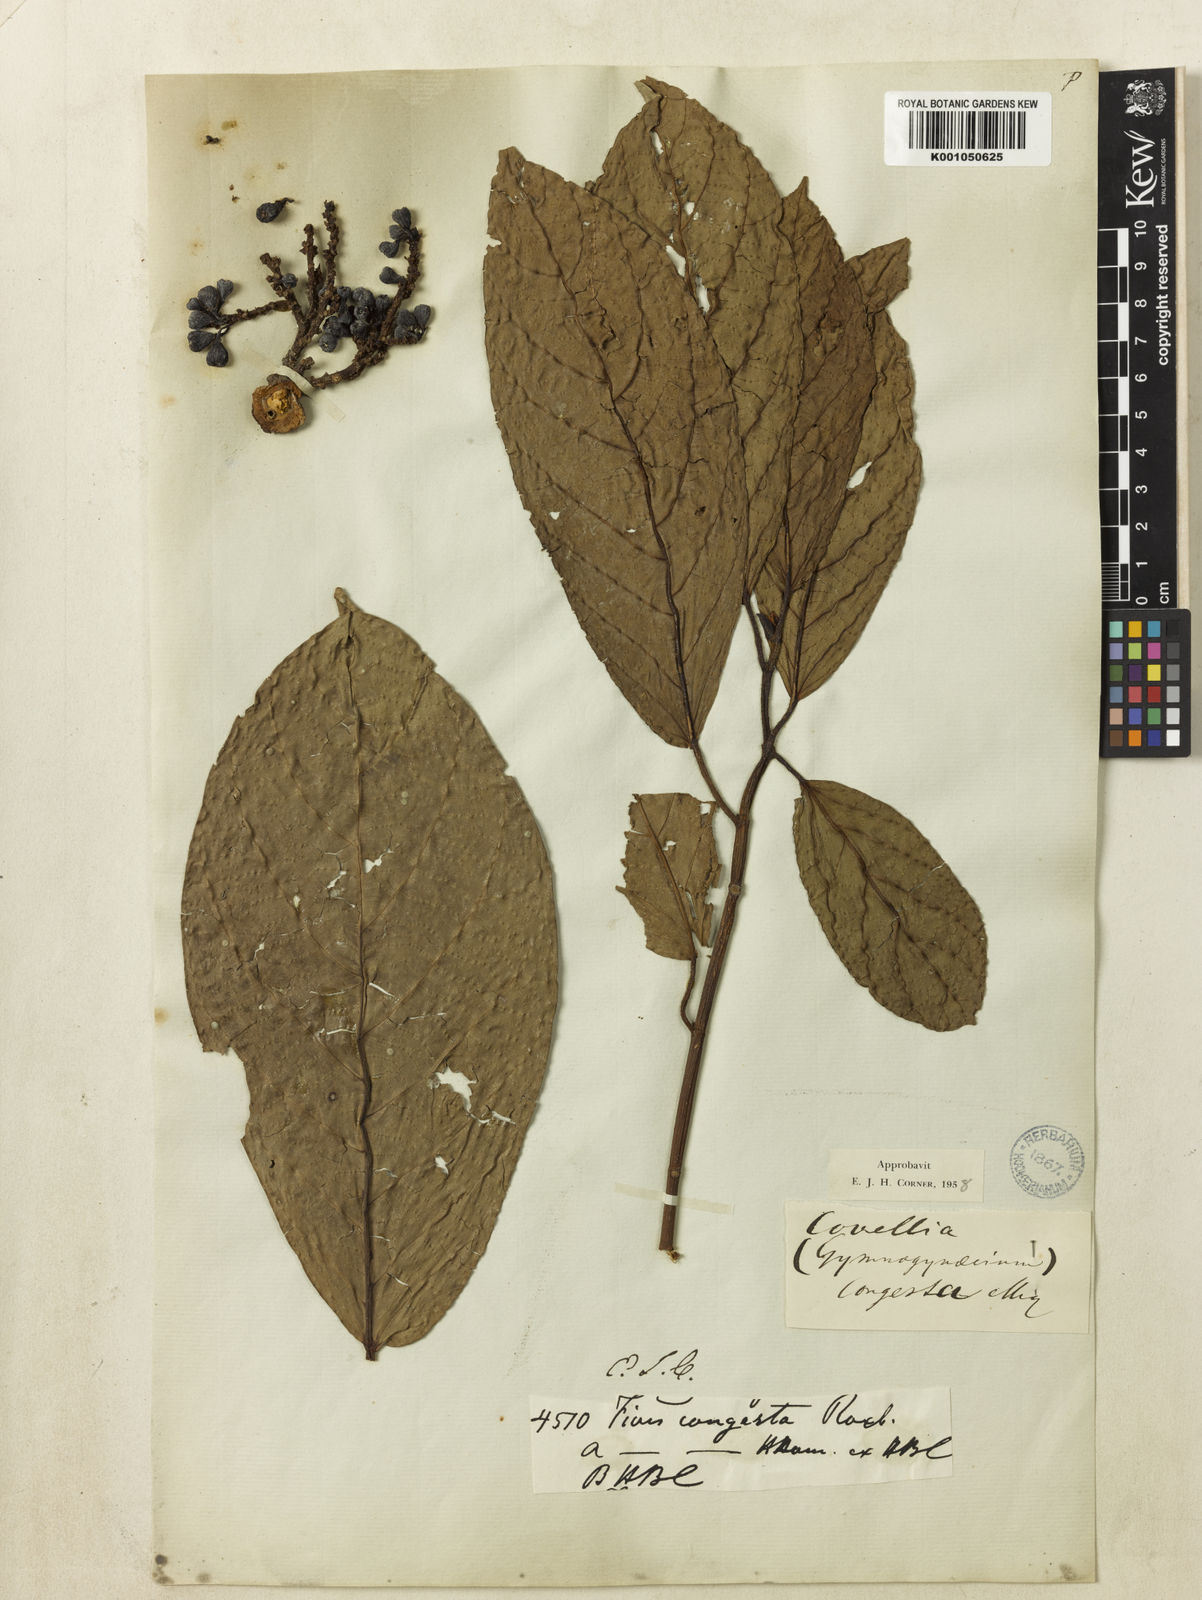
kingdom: Plantae
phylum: Tracheophyta
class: Magnoliopsida
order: Rosales
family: Moraceae
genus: Ficus
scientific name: Ficus congesta
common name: Cluster fig
